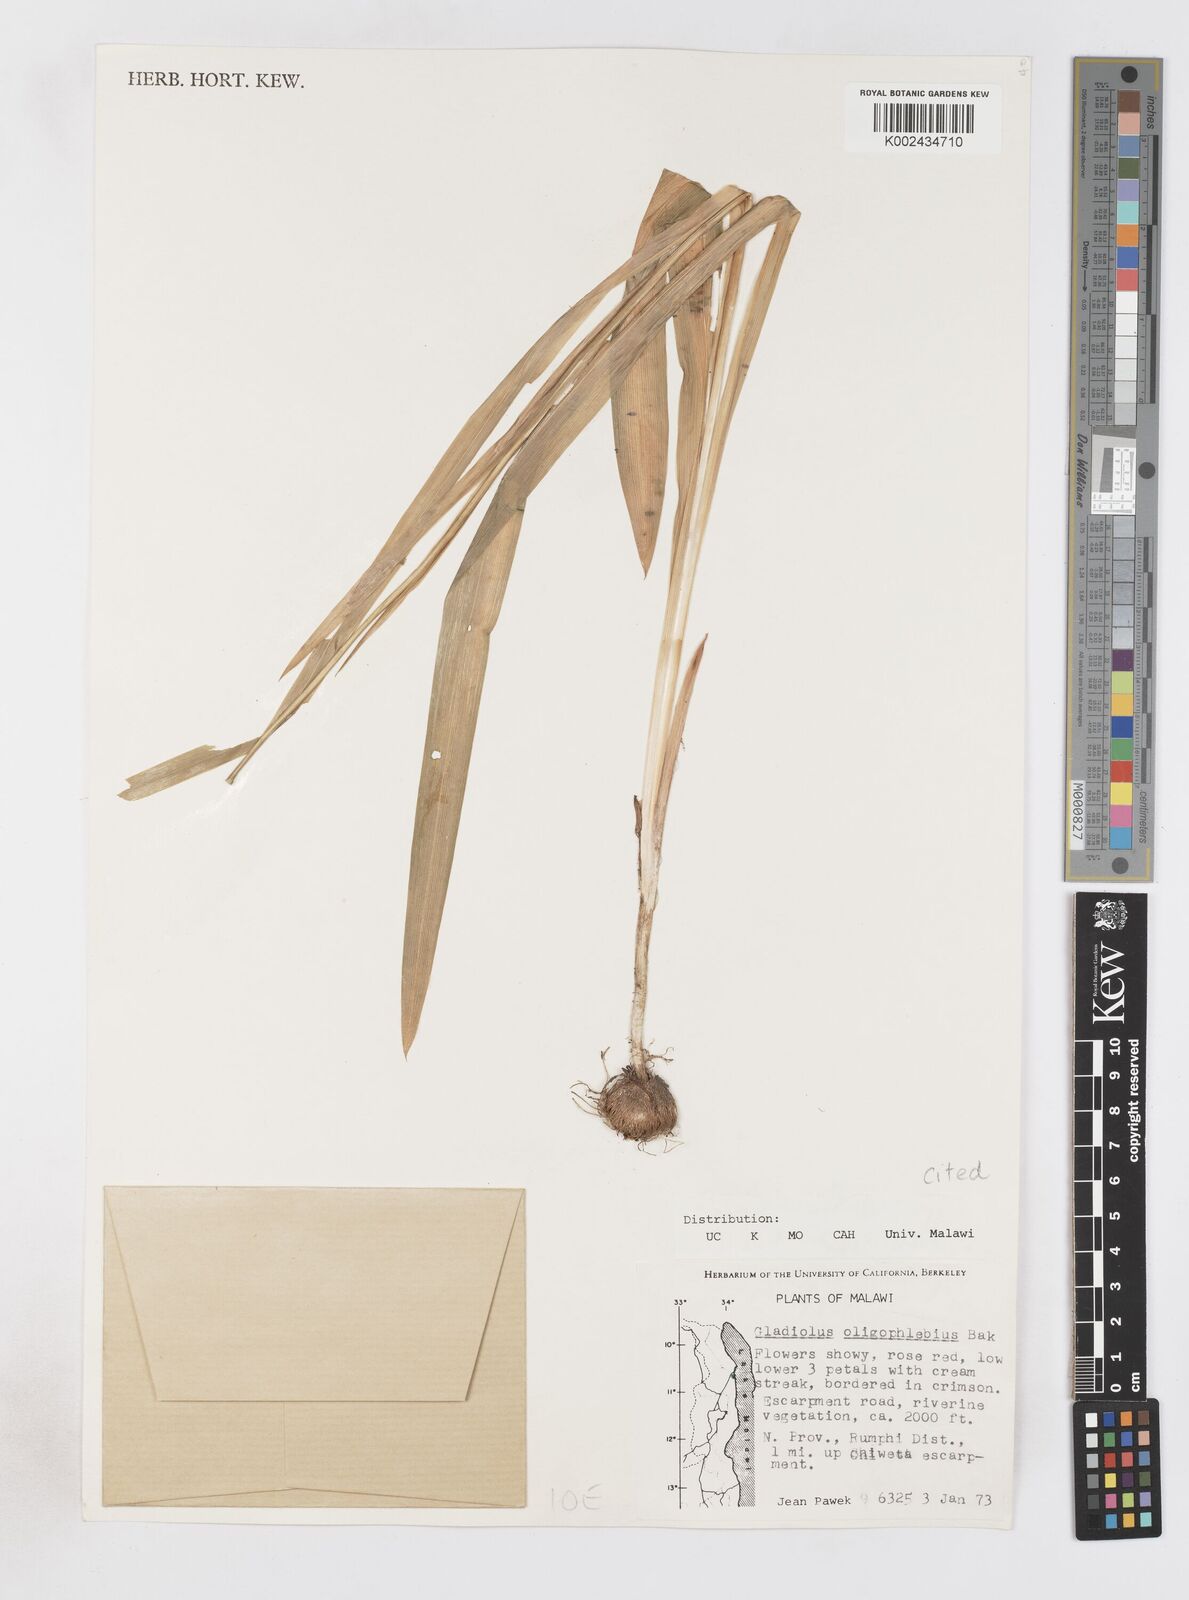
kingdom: Plantae
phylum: Tracheophyta
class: Liliopsida
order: Asparagales
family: Iridaceae
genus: Gladiolus
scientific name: Gladiolus oligophlebius
